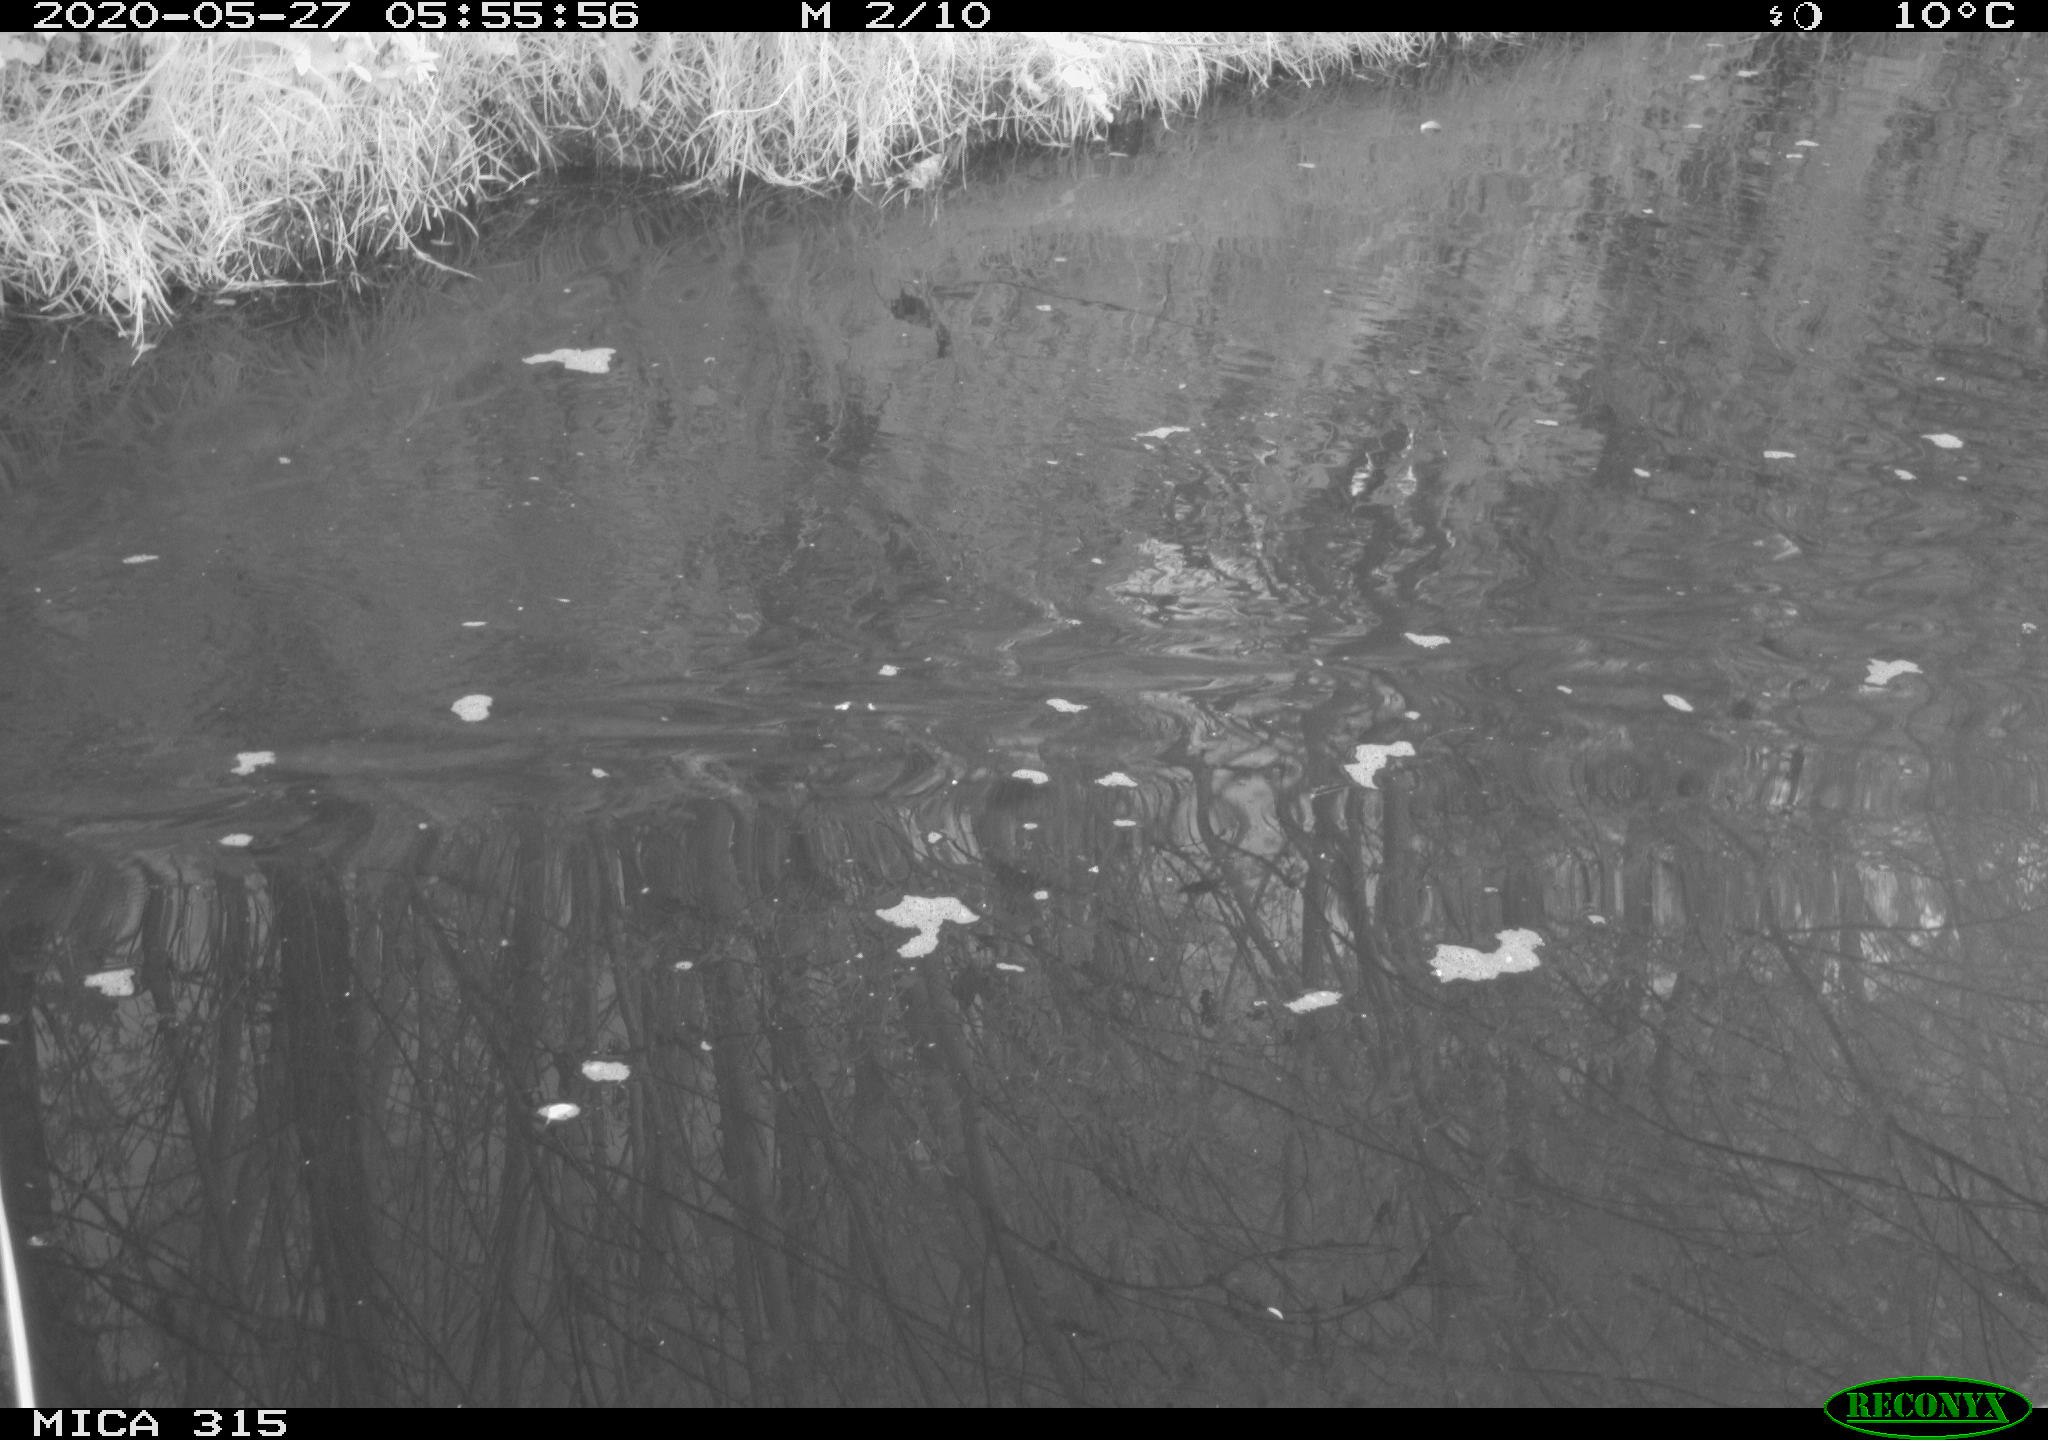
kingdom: Animalia
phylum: Chordata
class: Aves
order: Gruiformes
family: Rallidae
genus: Fulica
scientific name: Fulica atra
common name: Eurasian coot
